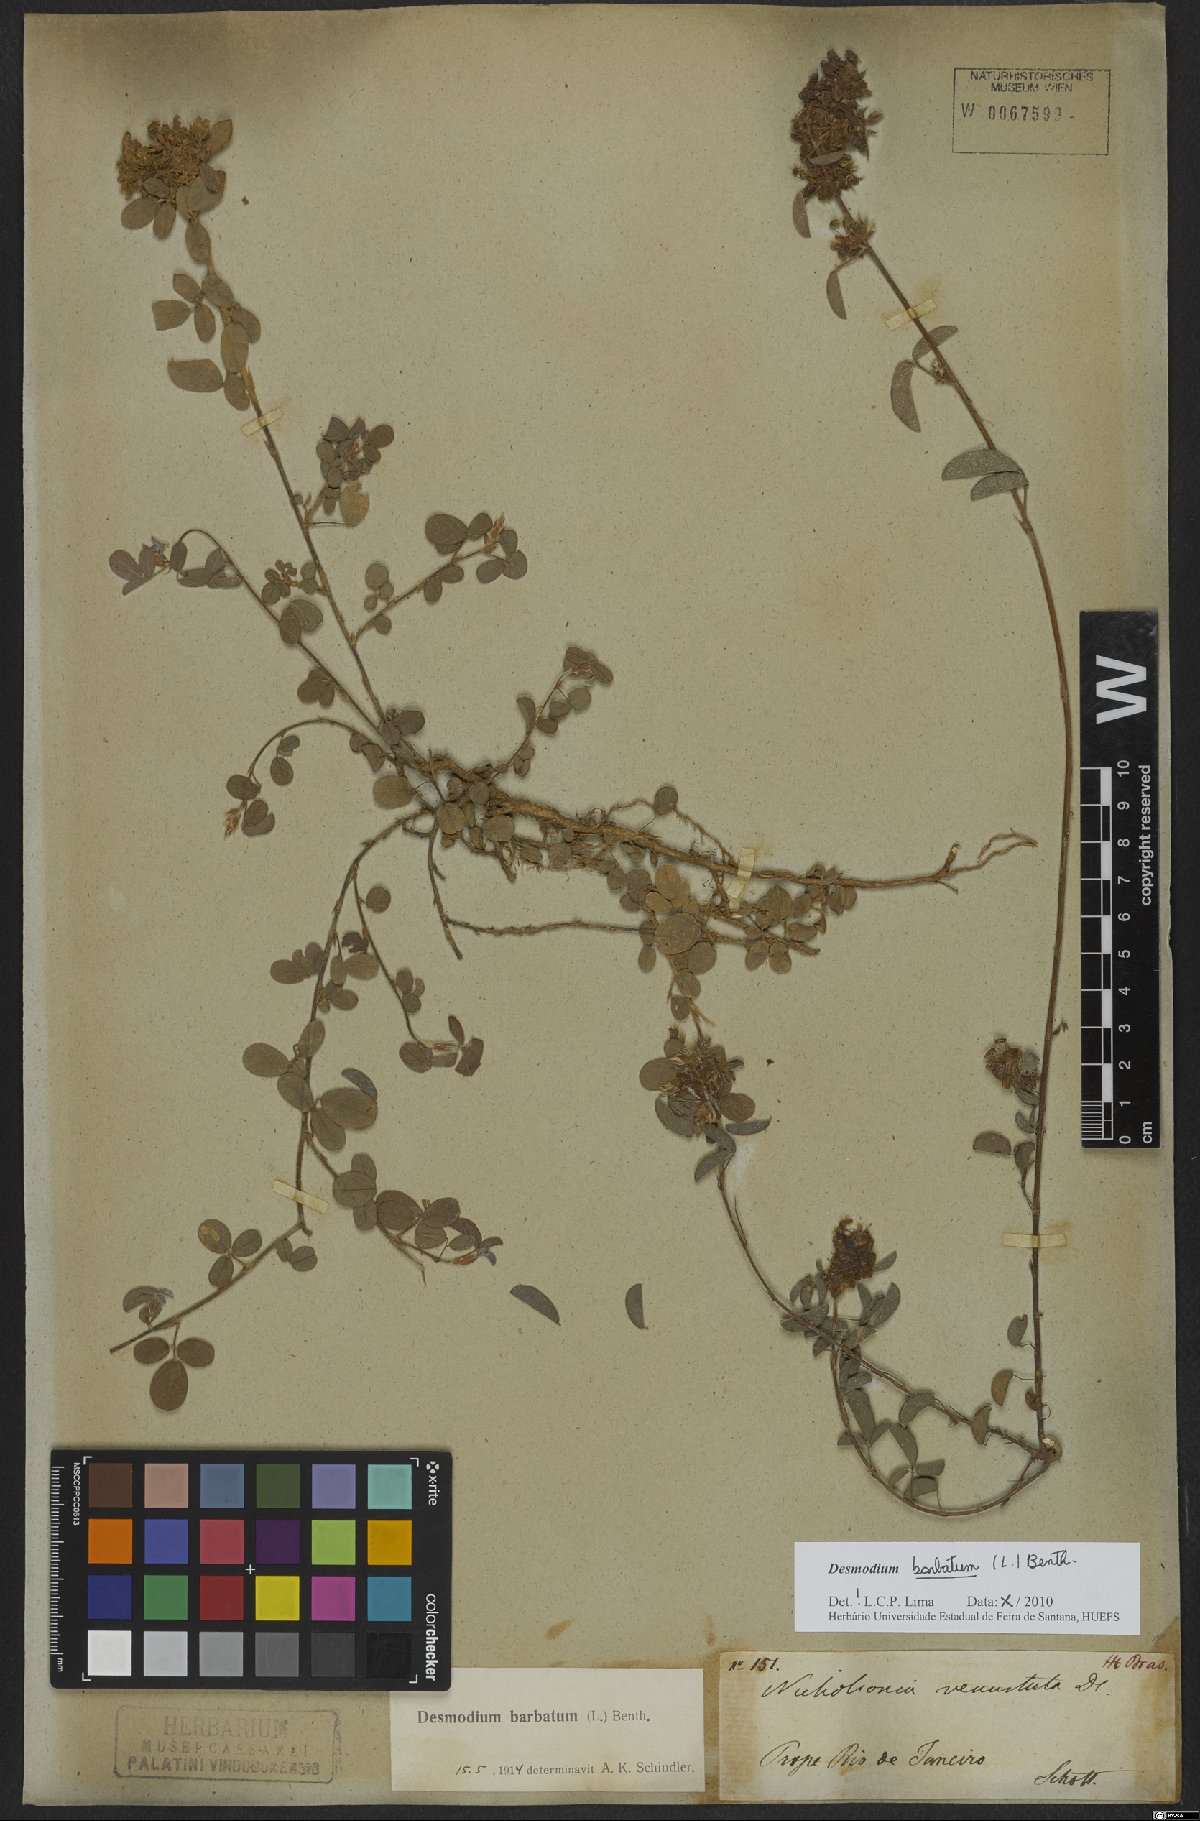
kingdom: Plantae
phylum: Tracheophyta
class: Magnoliopsida
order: Fabales
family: Fabaceae
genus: Grona
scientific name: Grona barbata
